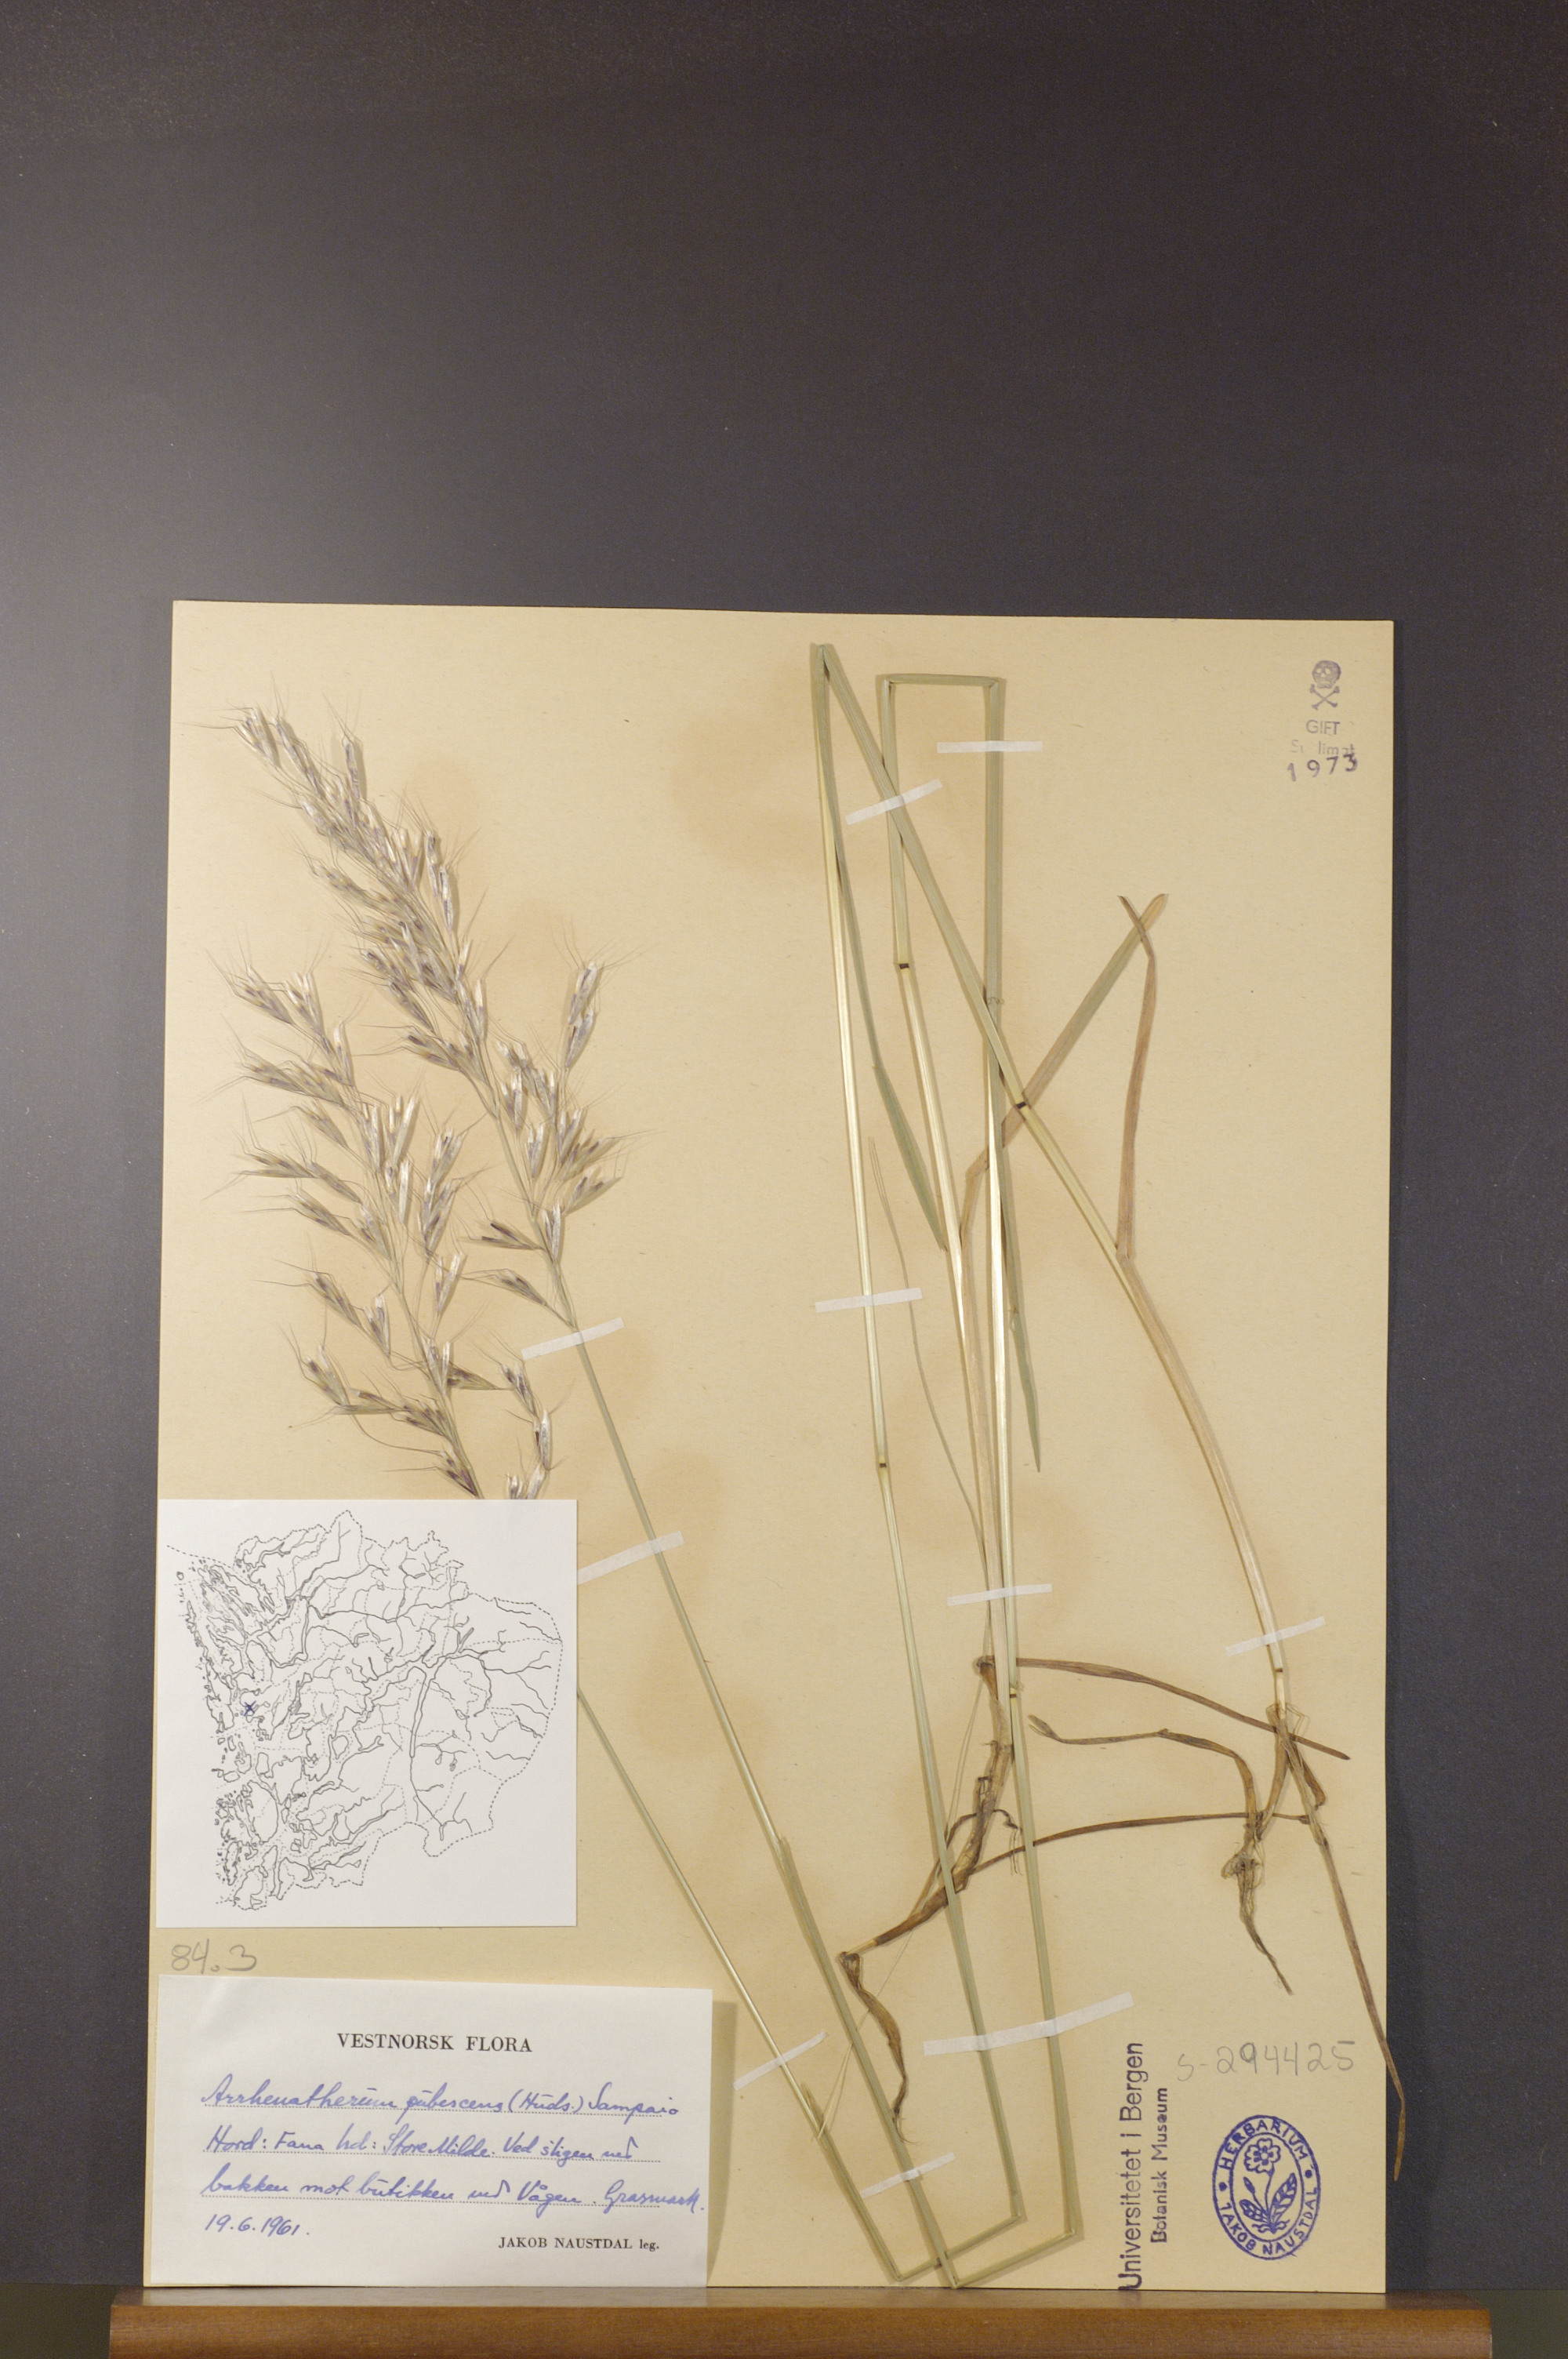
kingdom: Plantae
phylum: Tracheophyta
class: Liliopsida
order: Poales
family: Poaceae
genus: Avenula
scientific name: Avenula pubescens
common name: Downy alpine oatgrass
